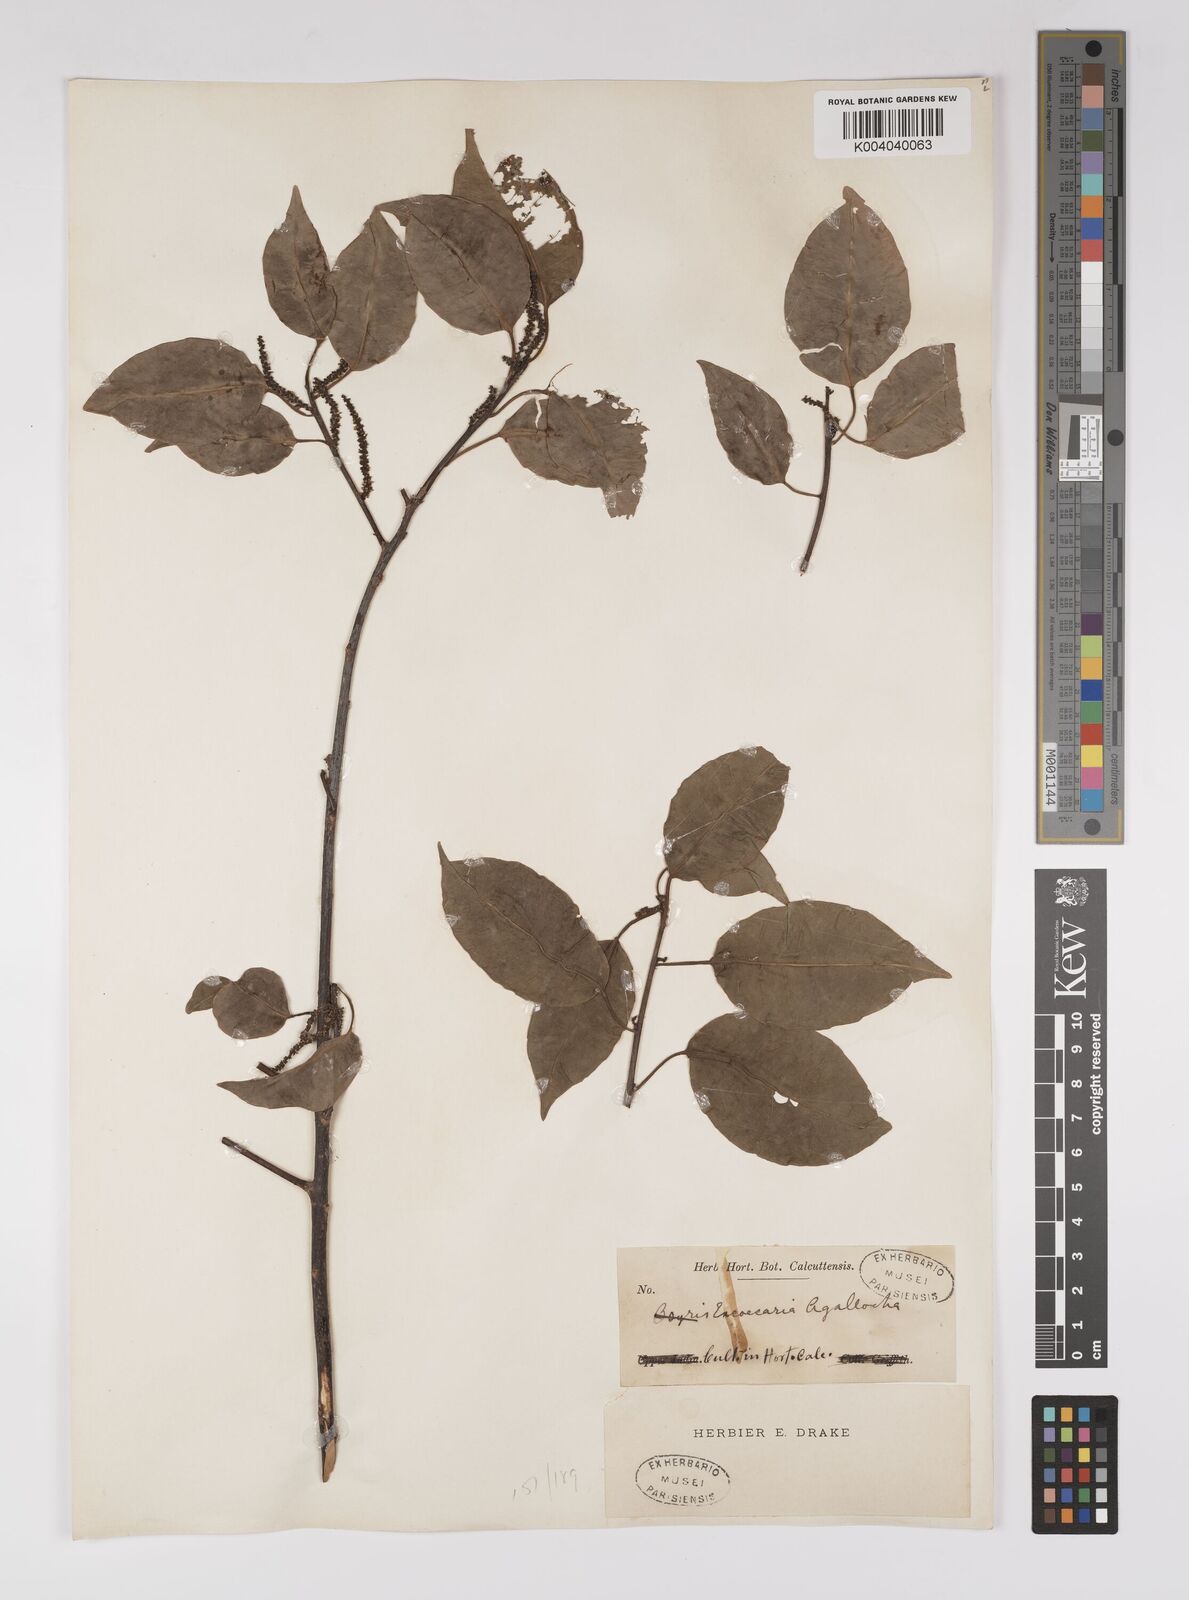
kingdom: Plantae
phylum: Tracheophyta
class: Magnoliopsida
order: Malpighiales
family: Euphorbiaceae
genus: Excoecaria
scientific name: Excoecaria agallocha
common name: River poisontree
